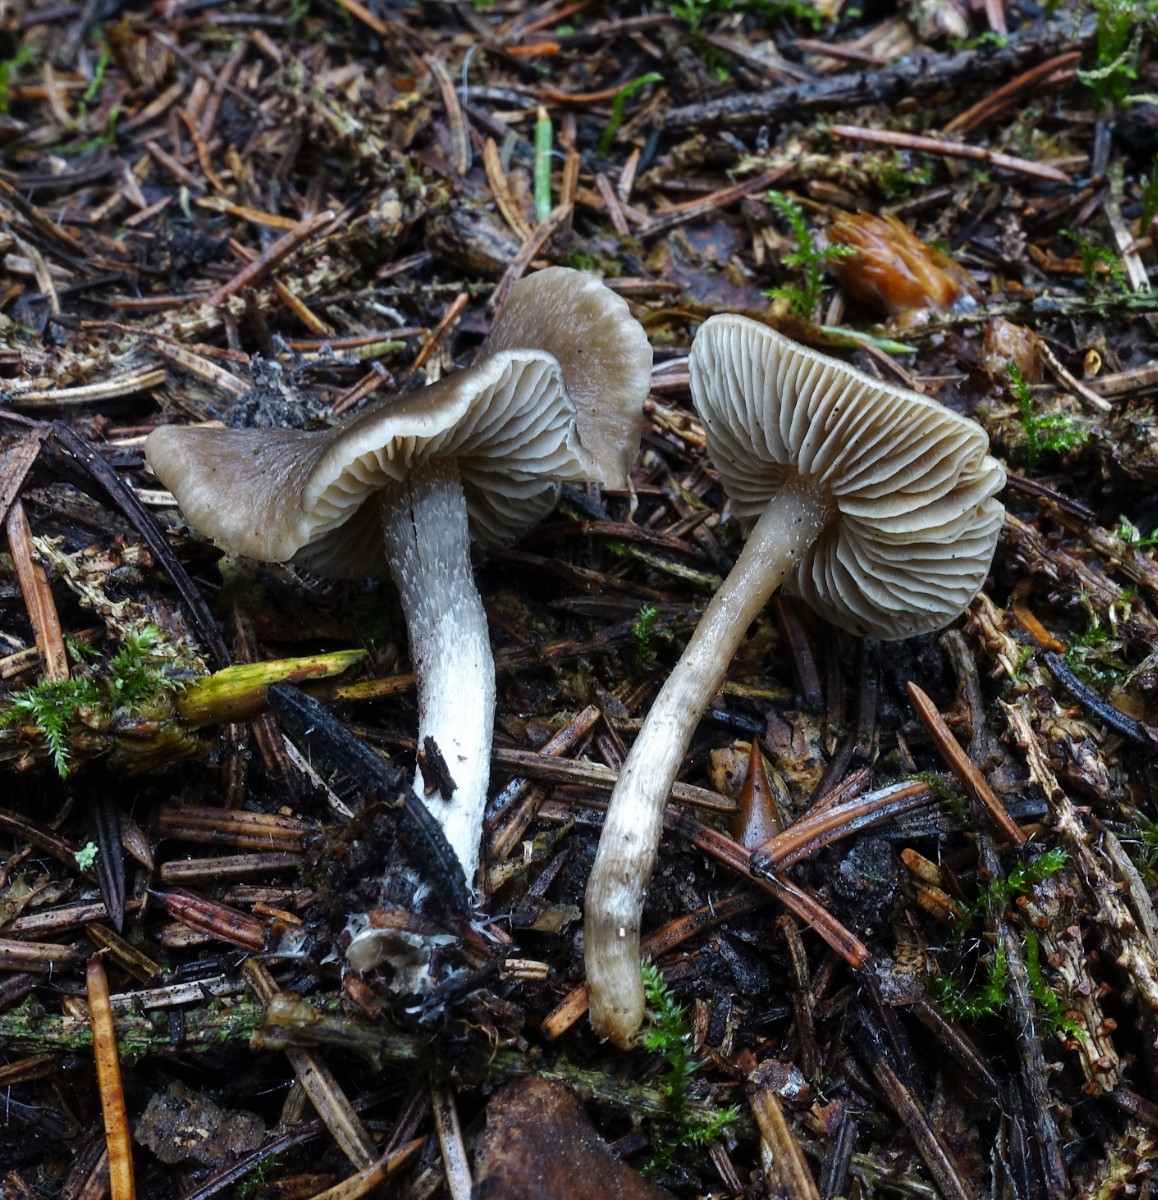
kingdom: Fungi
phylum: Basidiomycota
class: Agaricomycetes
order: Agaricales
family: Lyophyllaceae
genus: Myochromella
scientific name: Myochromella boudieri
